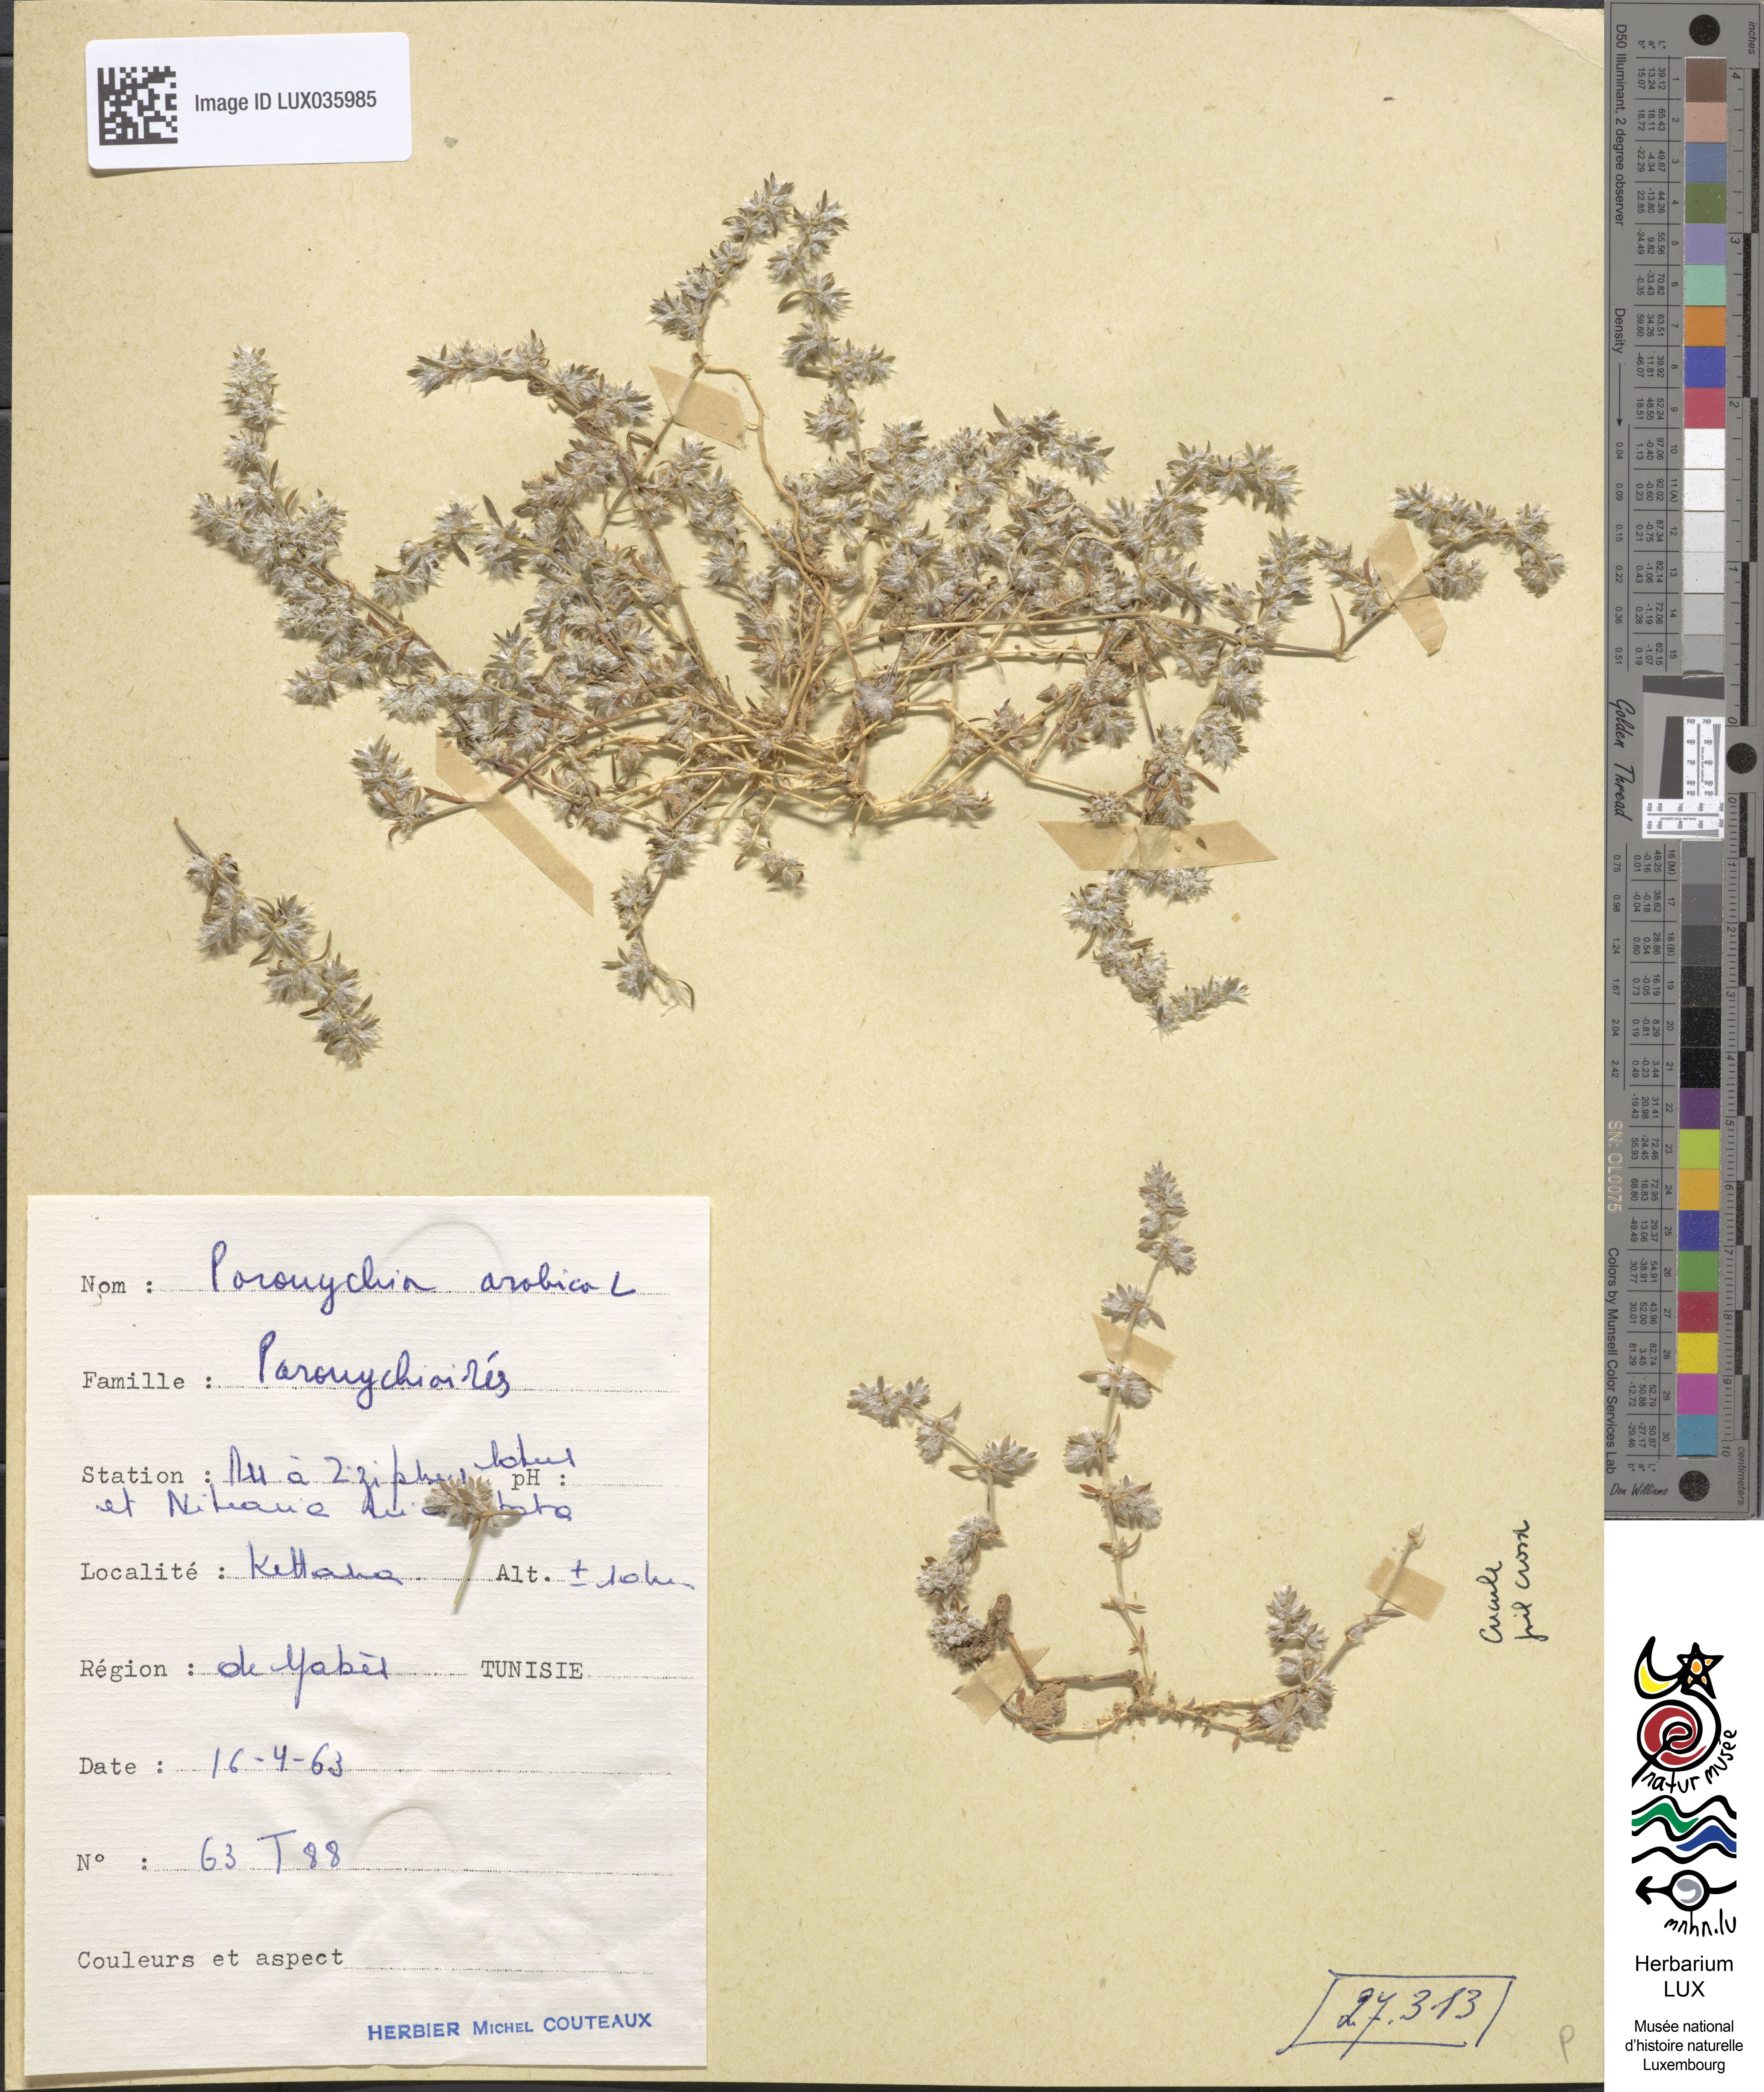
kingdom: Plantae
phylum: Tracheophyta
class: Magnoliopsida
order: Caryophyllales
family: Caryophyllaceae
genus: Paronychia
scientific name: Paronychia arabica
